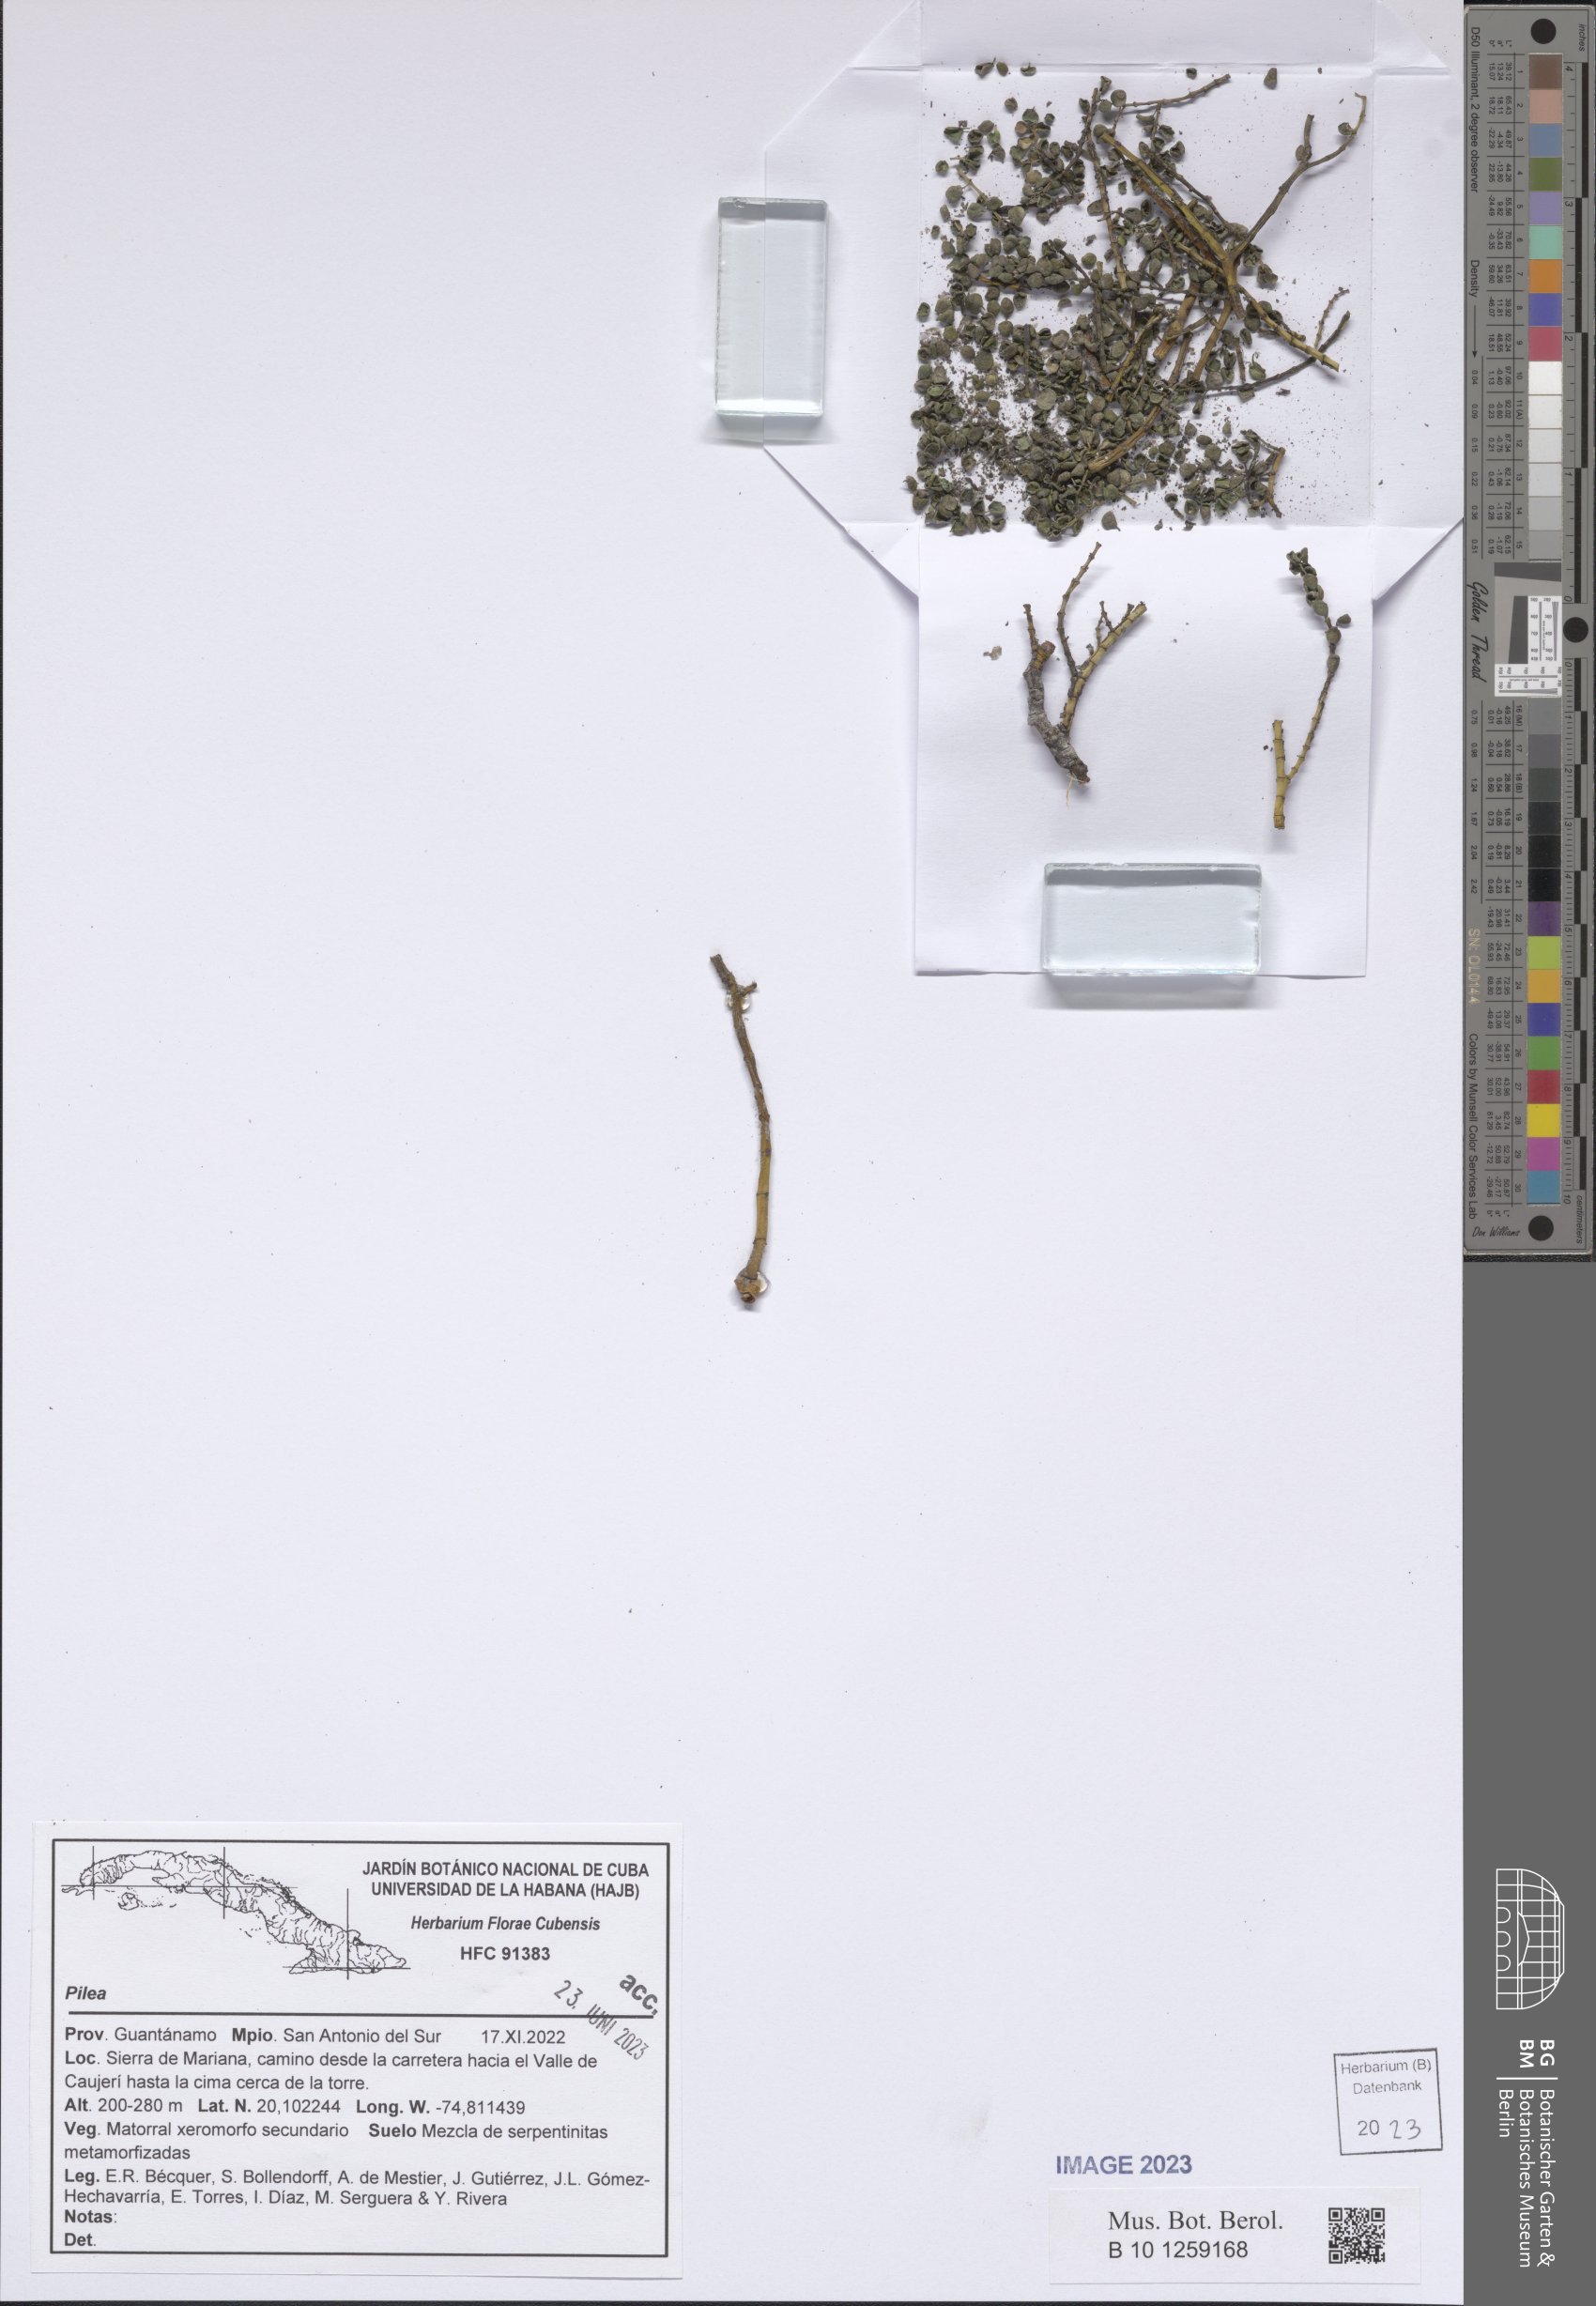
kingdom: Plantae
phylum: Tracheophyta
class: Magnoliopsida
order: Rosales
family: Urticaceae
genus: Pilea
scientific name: Pilea
